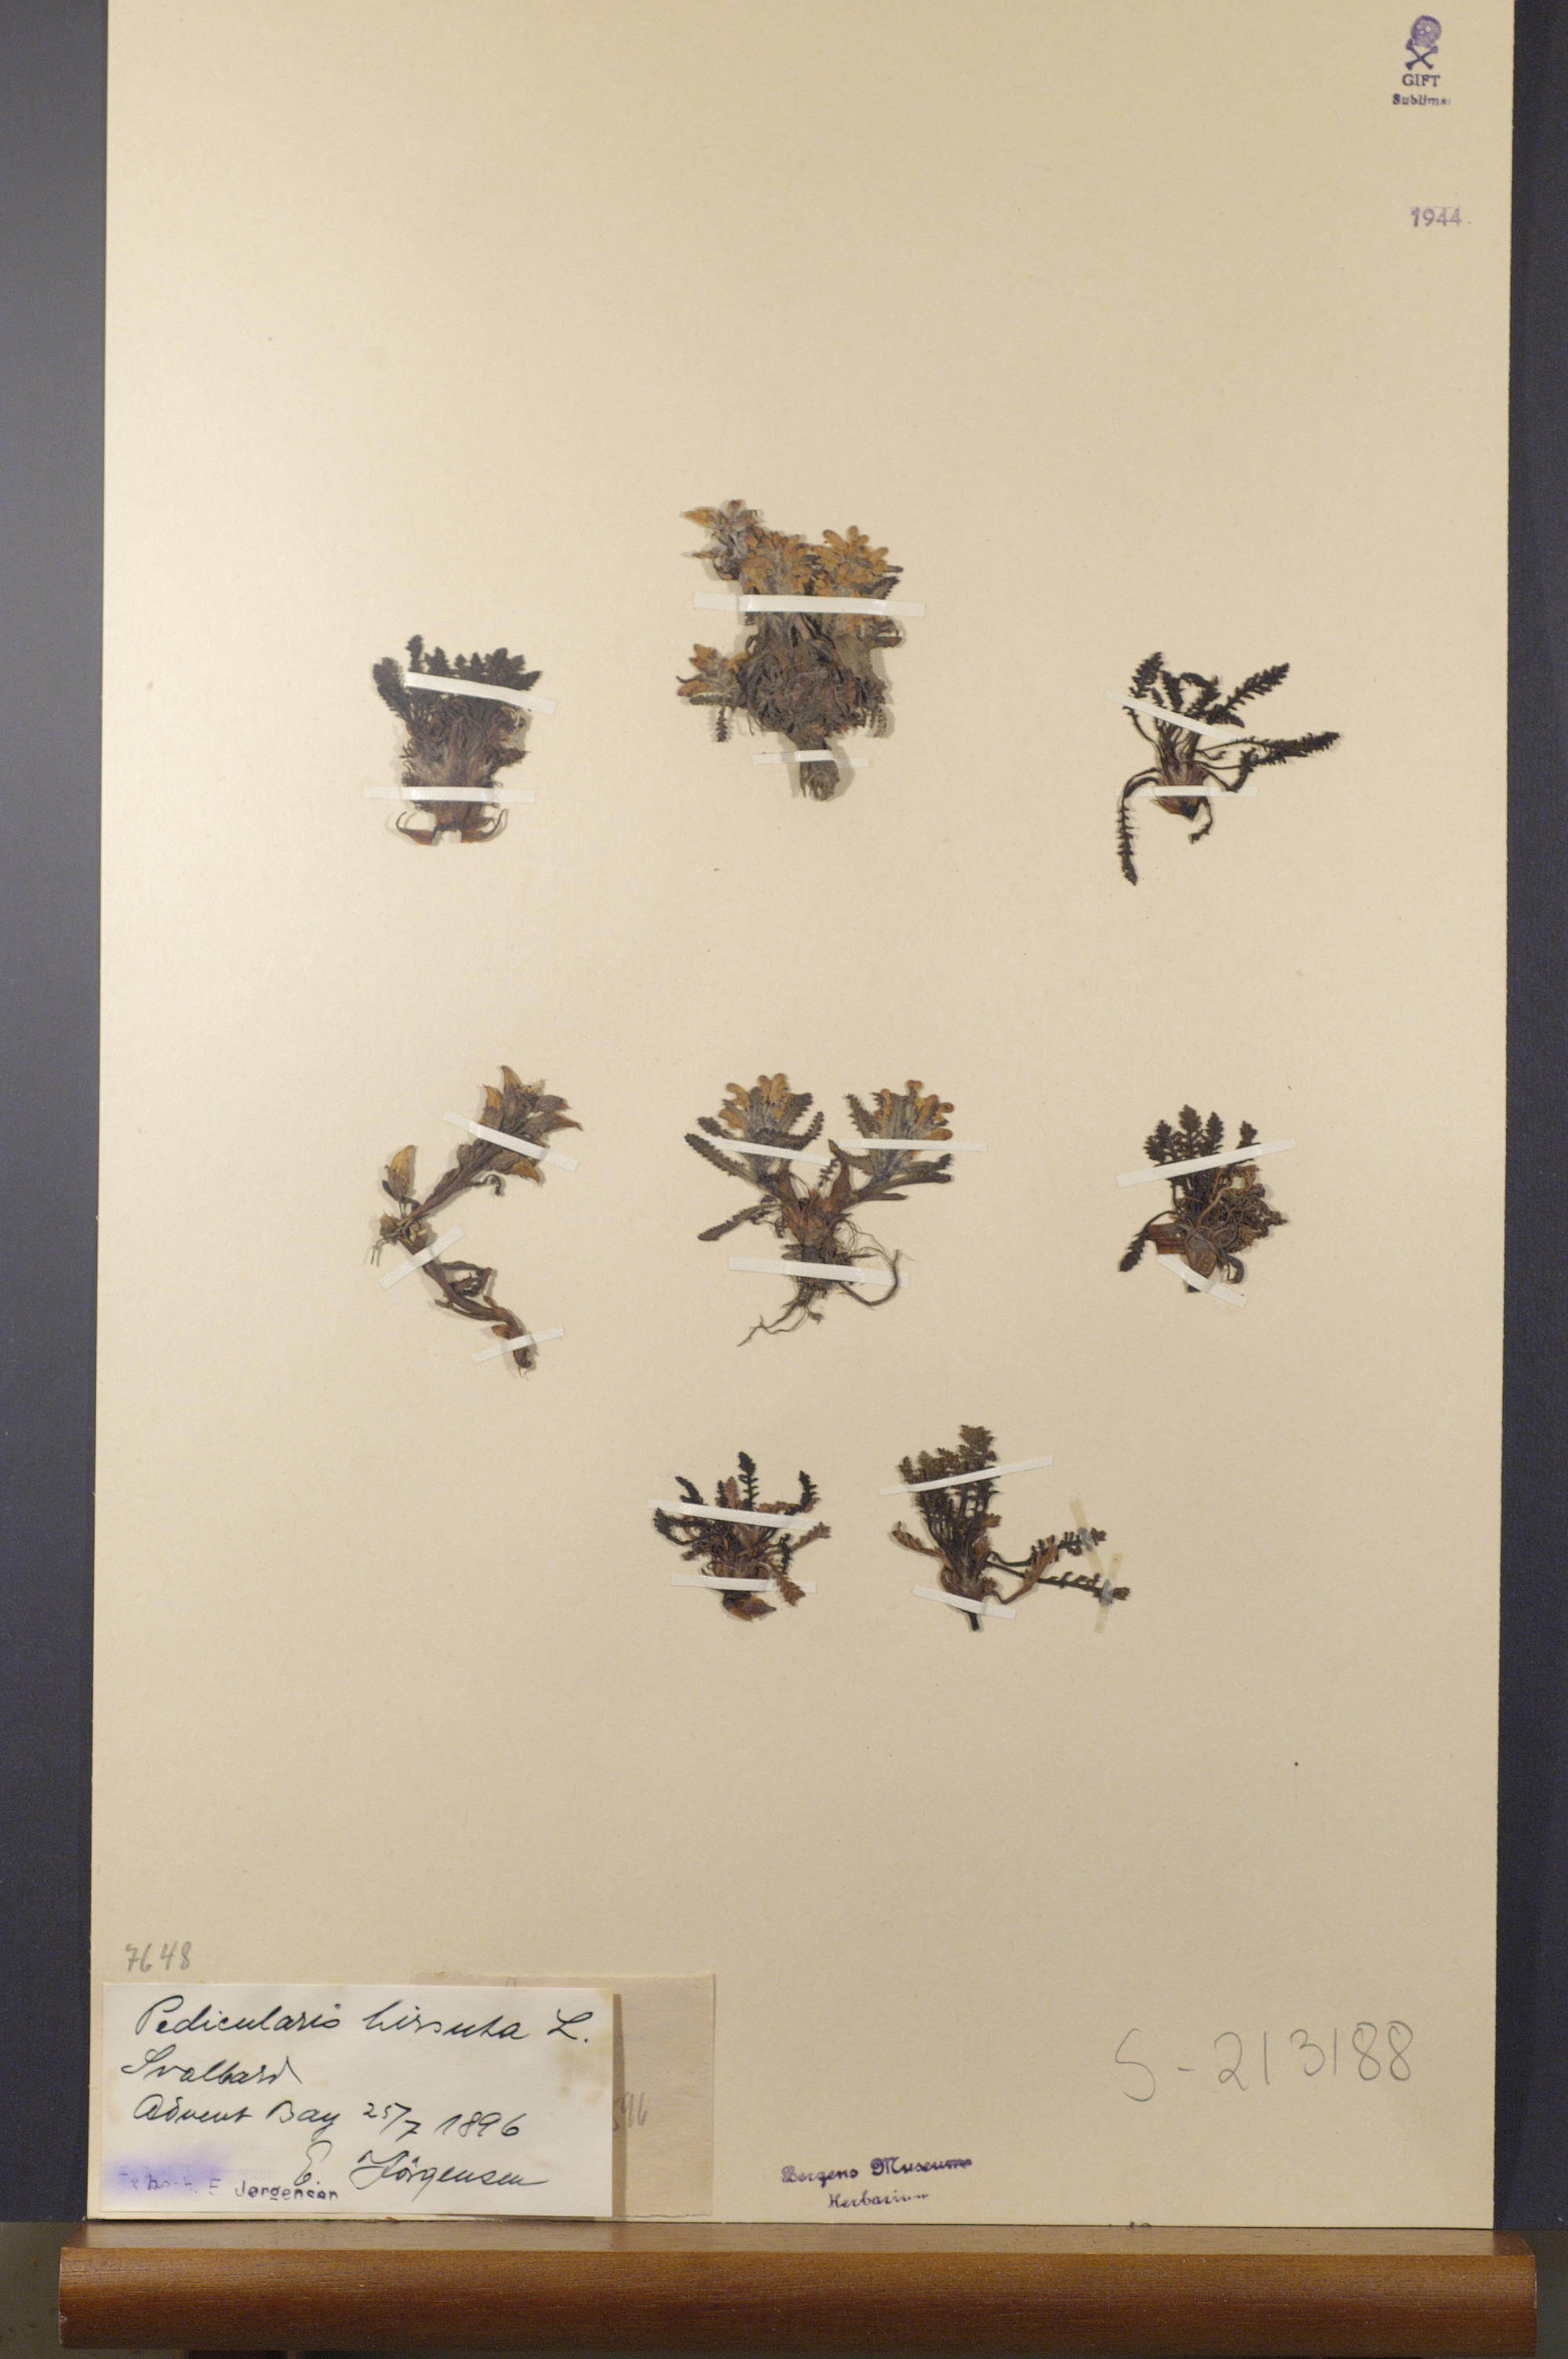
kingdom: Plantae
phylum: Tracheophyta
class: Magnoliopsida
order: Lamiales
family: Orobanchaceae
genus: Pedicularis
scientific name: Pedicularis hirsuta
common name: Hairy lousewort
